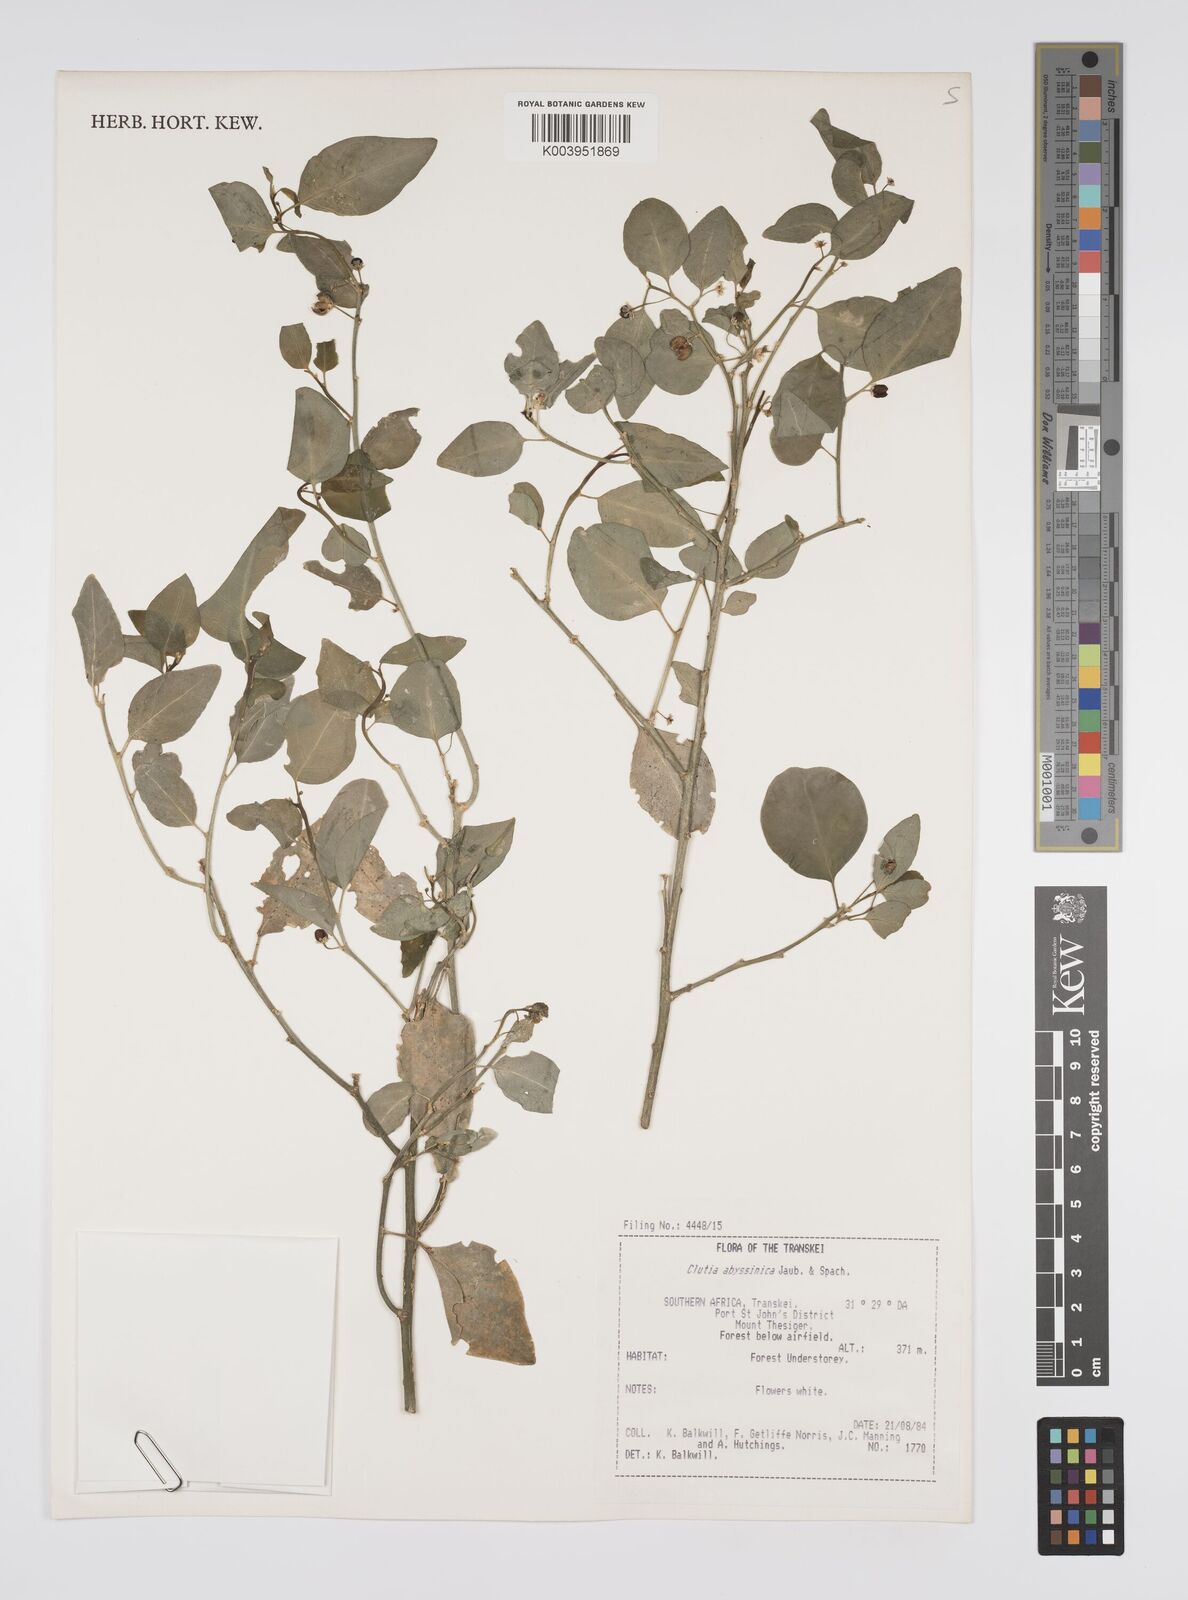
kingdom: Plantae
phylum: Tracheophyta
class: Magnoliopsida
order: Malpighiales
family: Peraceae
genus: Clutia
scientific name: Clutia abyssinica
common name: Large lightning bush
